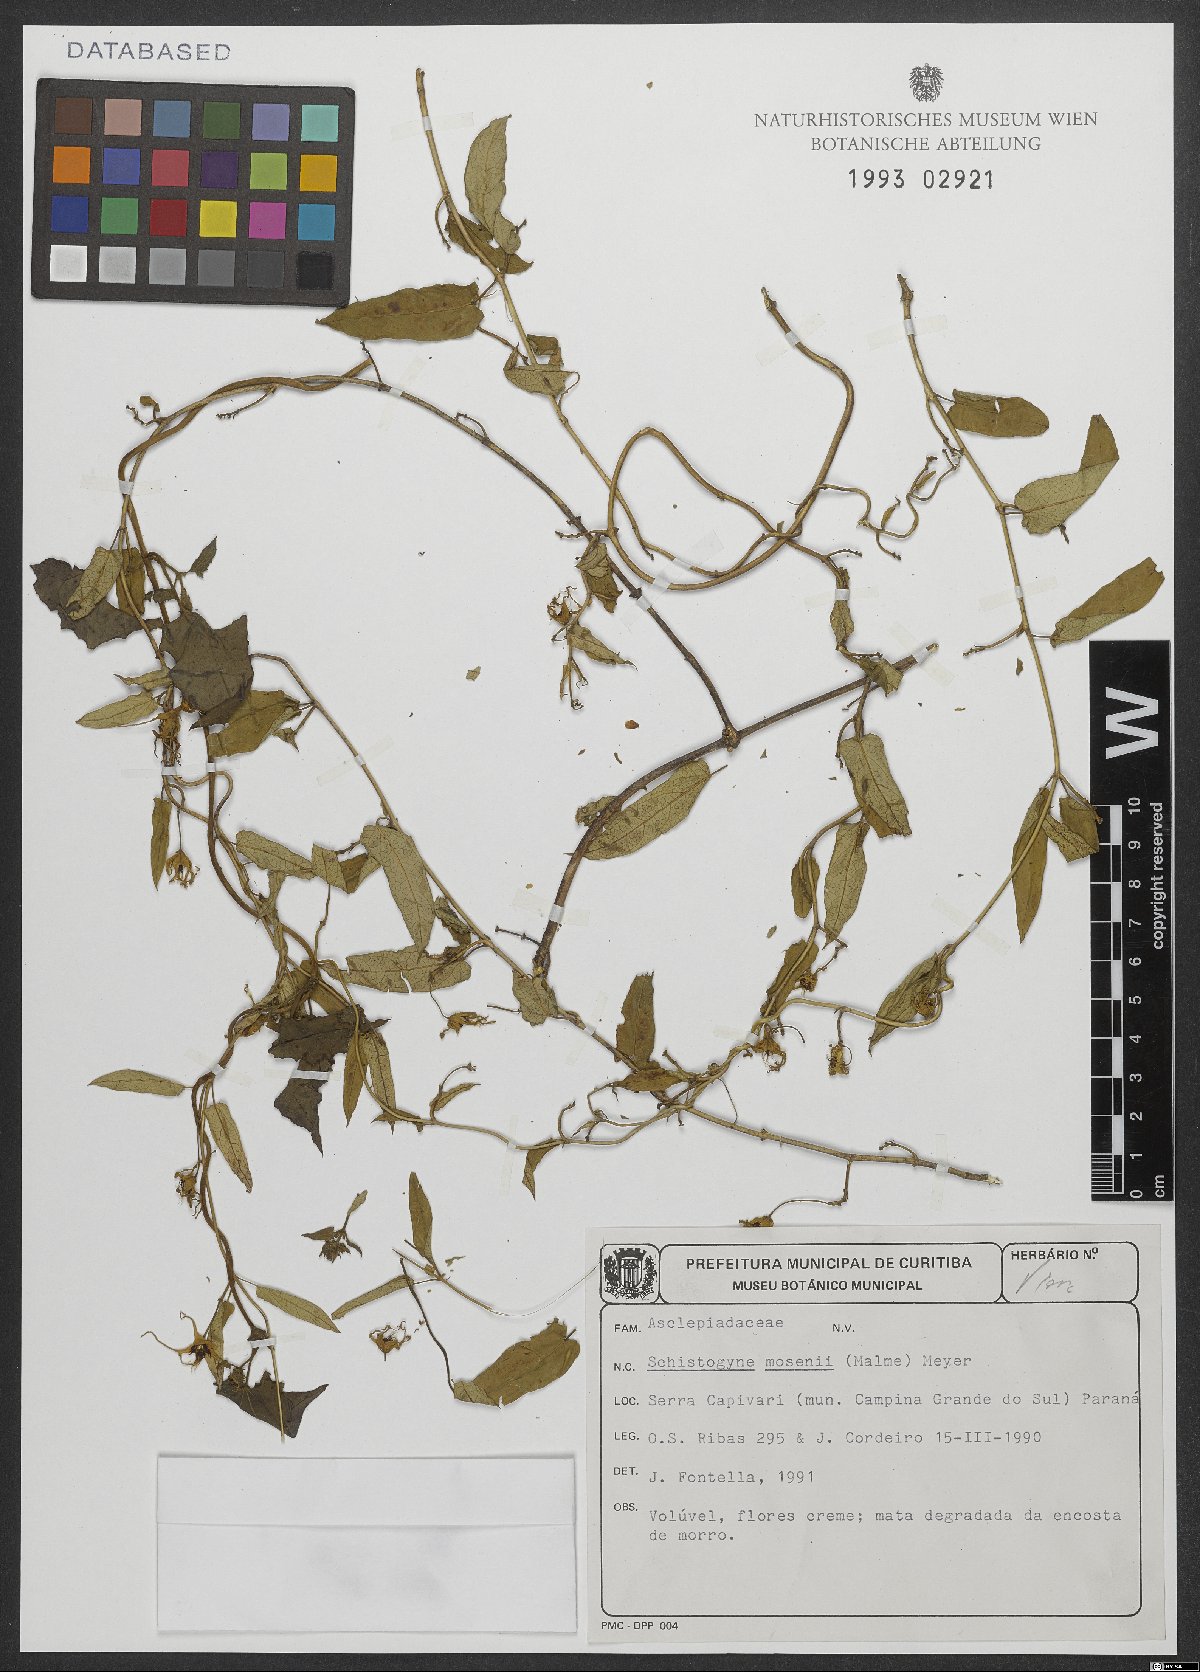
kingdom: Plantae
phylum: Tracheophyta
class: Magnoliopsida
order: Gentianales
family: Apocynaceae
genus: Oxypetalum
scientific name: Oxypetalum mosenii
